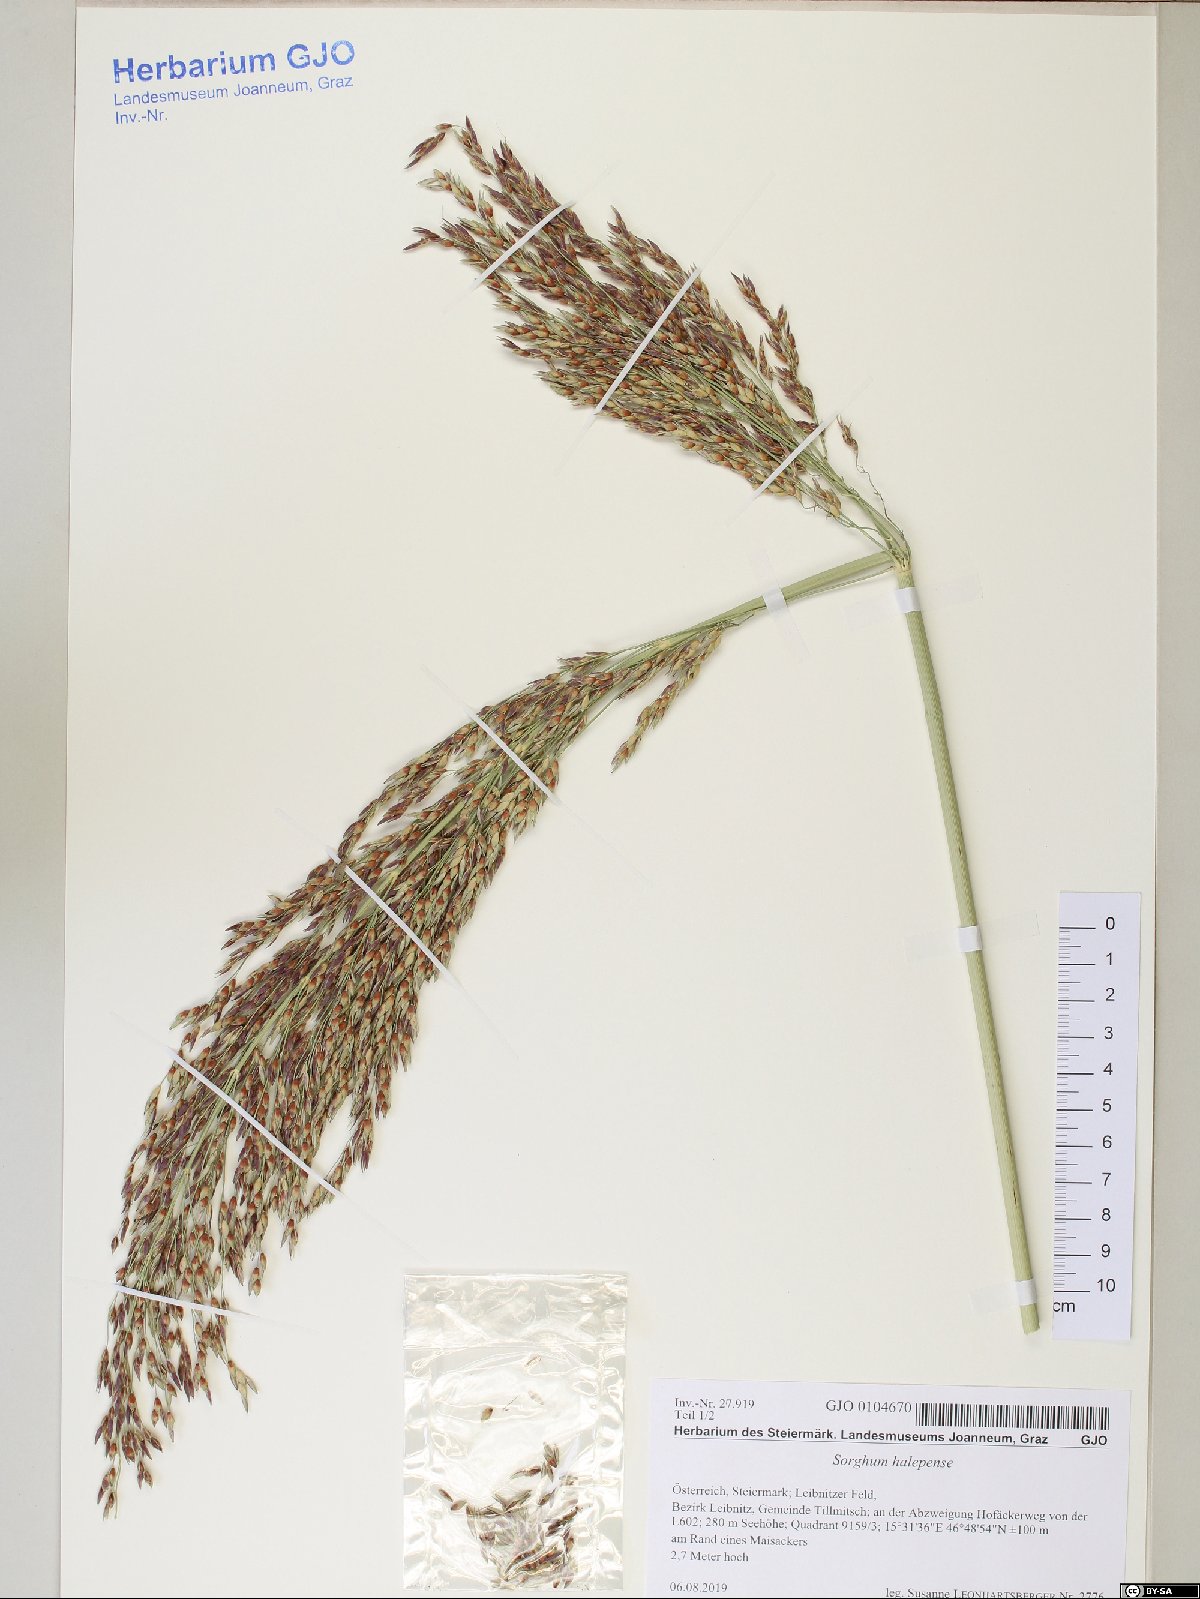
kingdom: Plantae
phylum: Tracheophyta
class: Liliopsida
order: Poales
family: Poaceae
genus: Sorghum
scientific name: Sorghum halepense
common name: Johnson-grass
